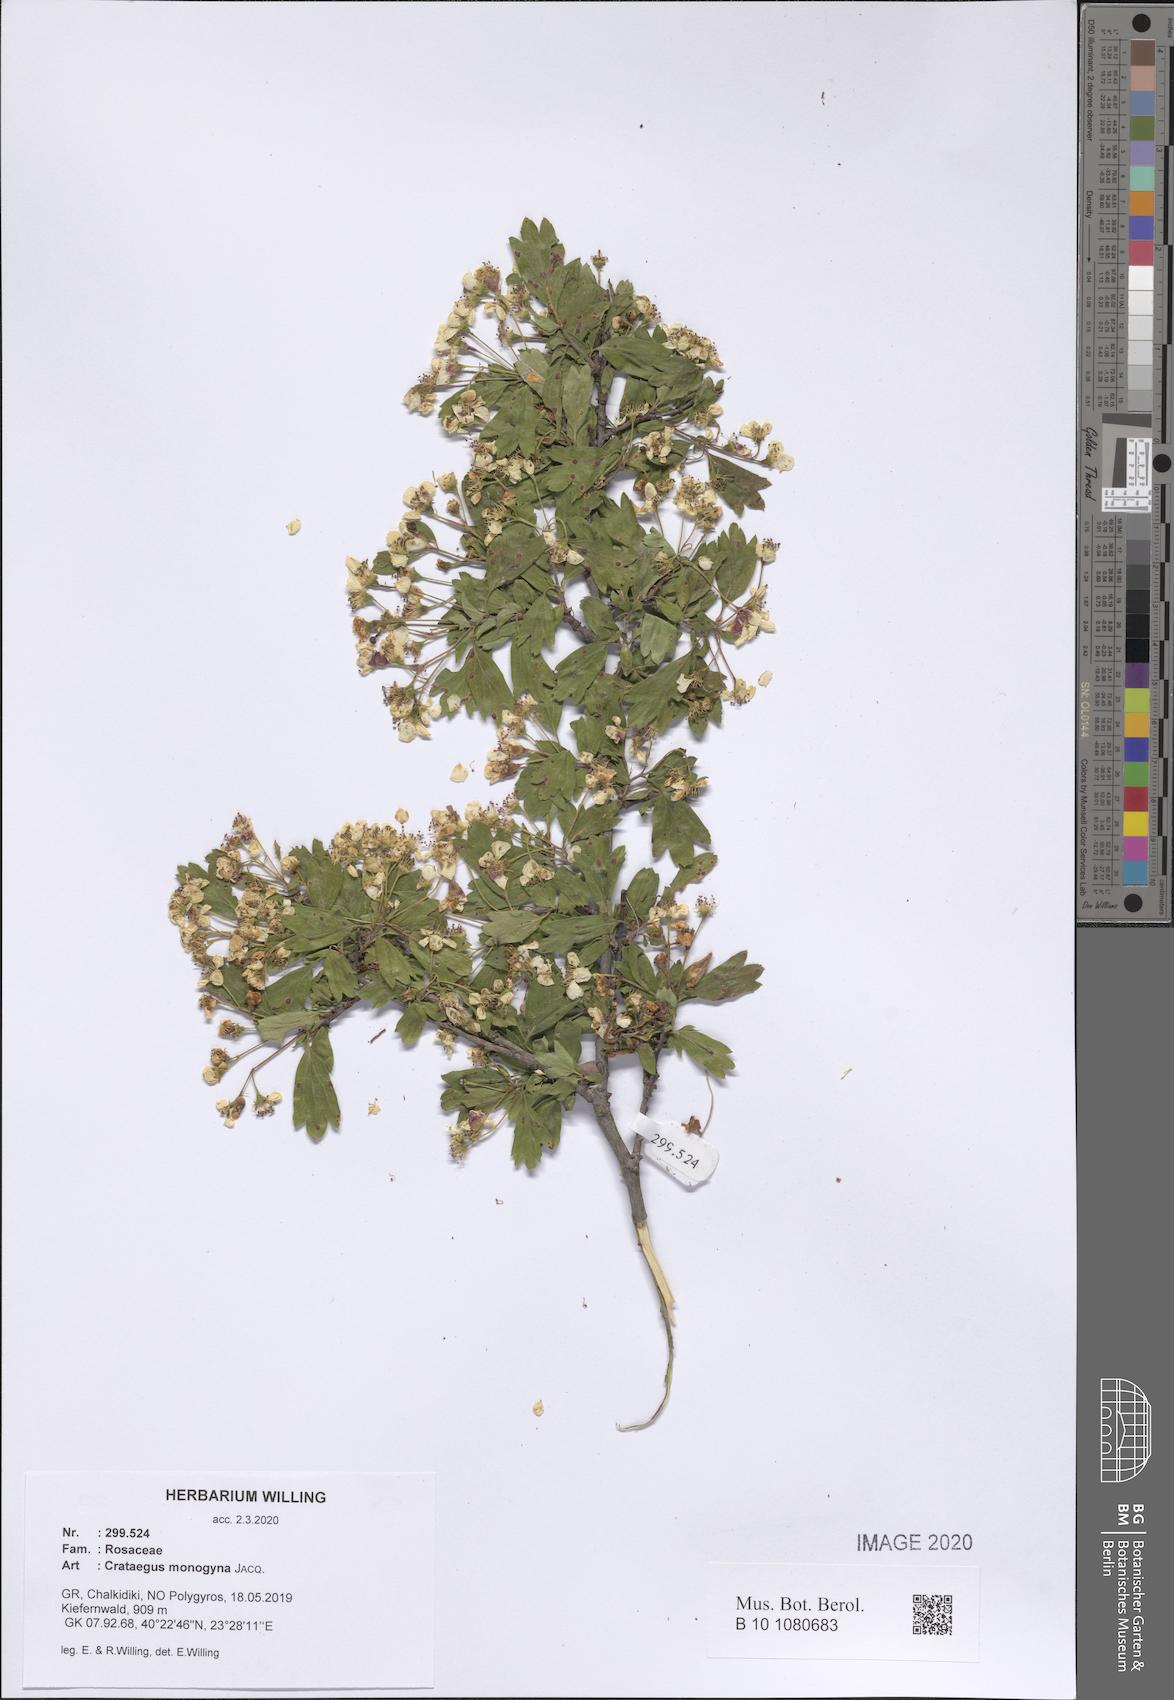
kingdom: Plantae
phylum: Tracheophyta
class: Magnoliopsida
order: Rosales
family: Rosaceae
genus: Crataegus
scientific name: Crataegus monogyna
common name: Hawthorn
